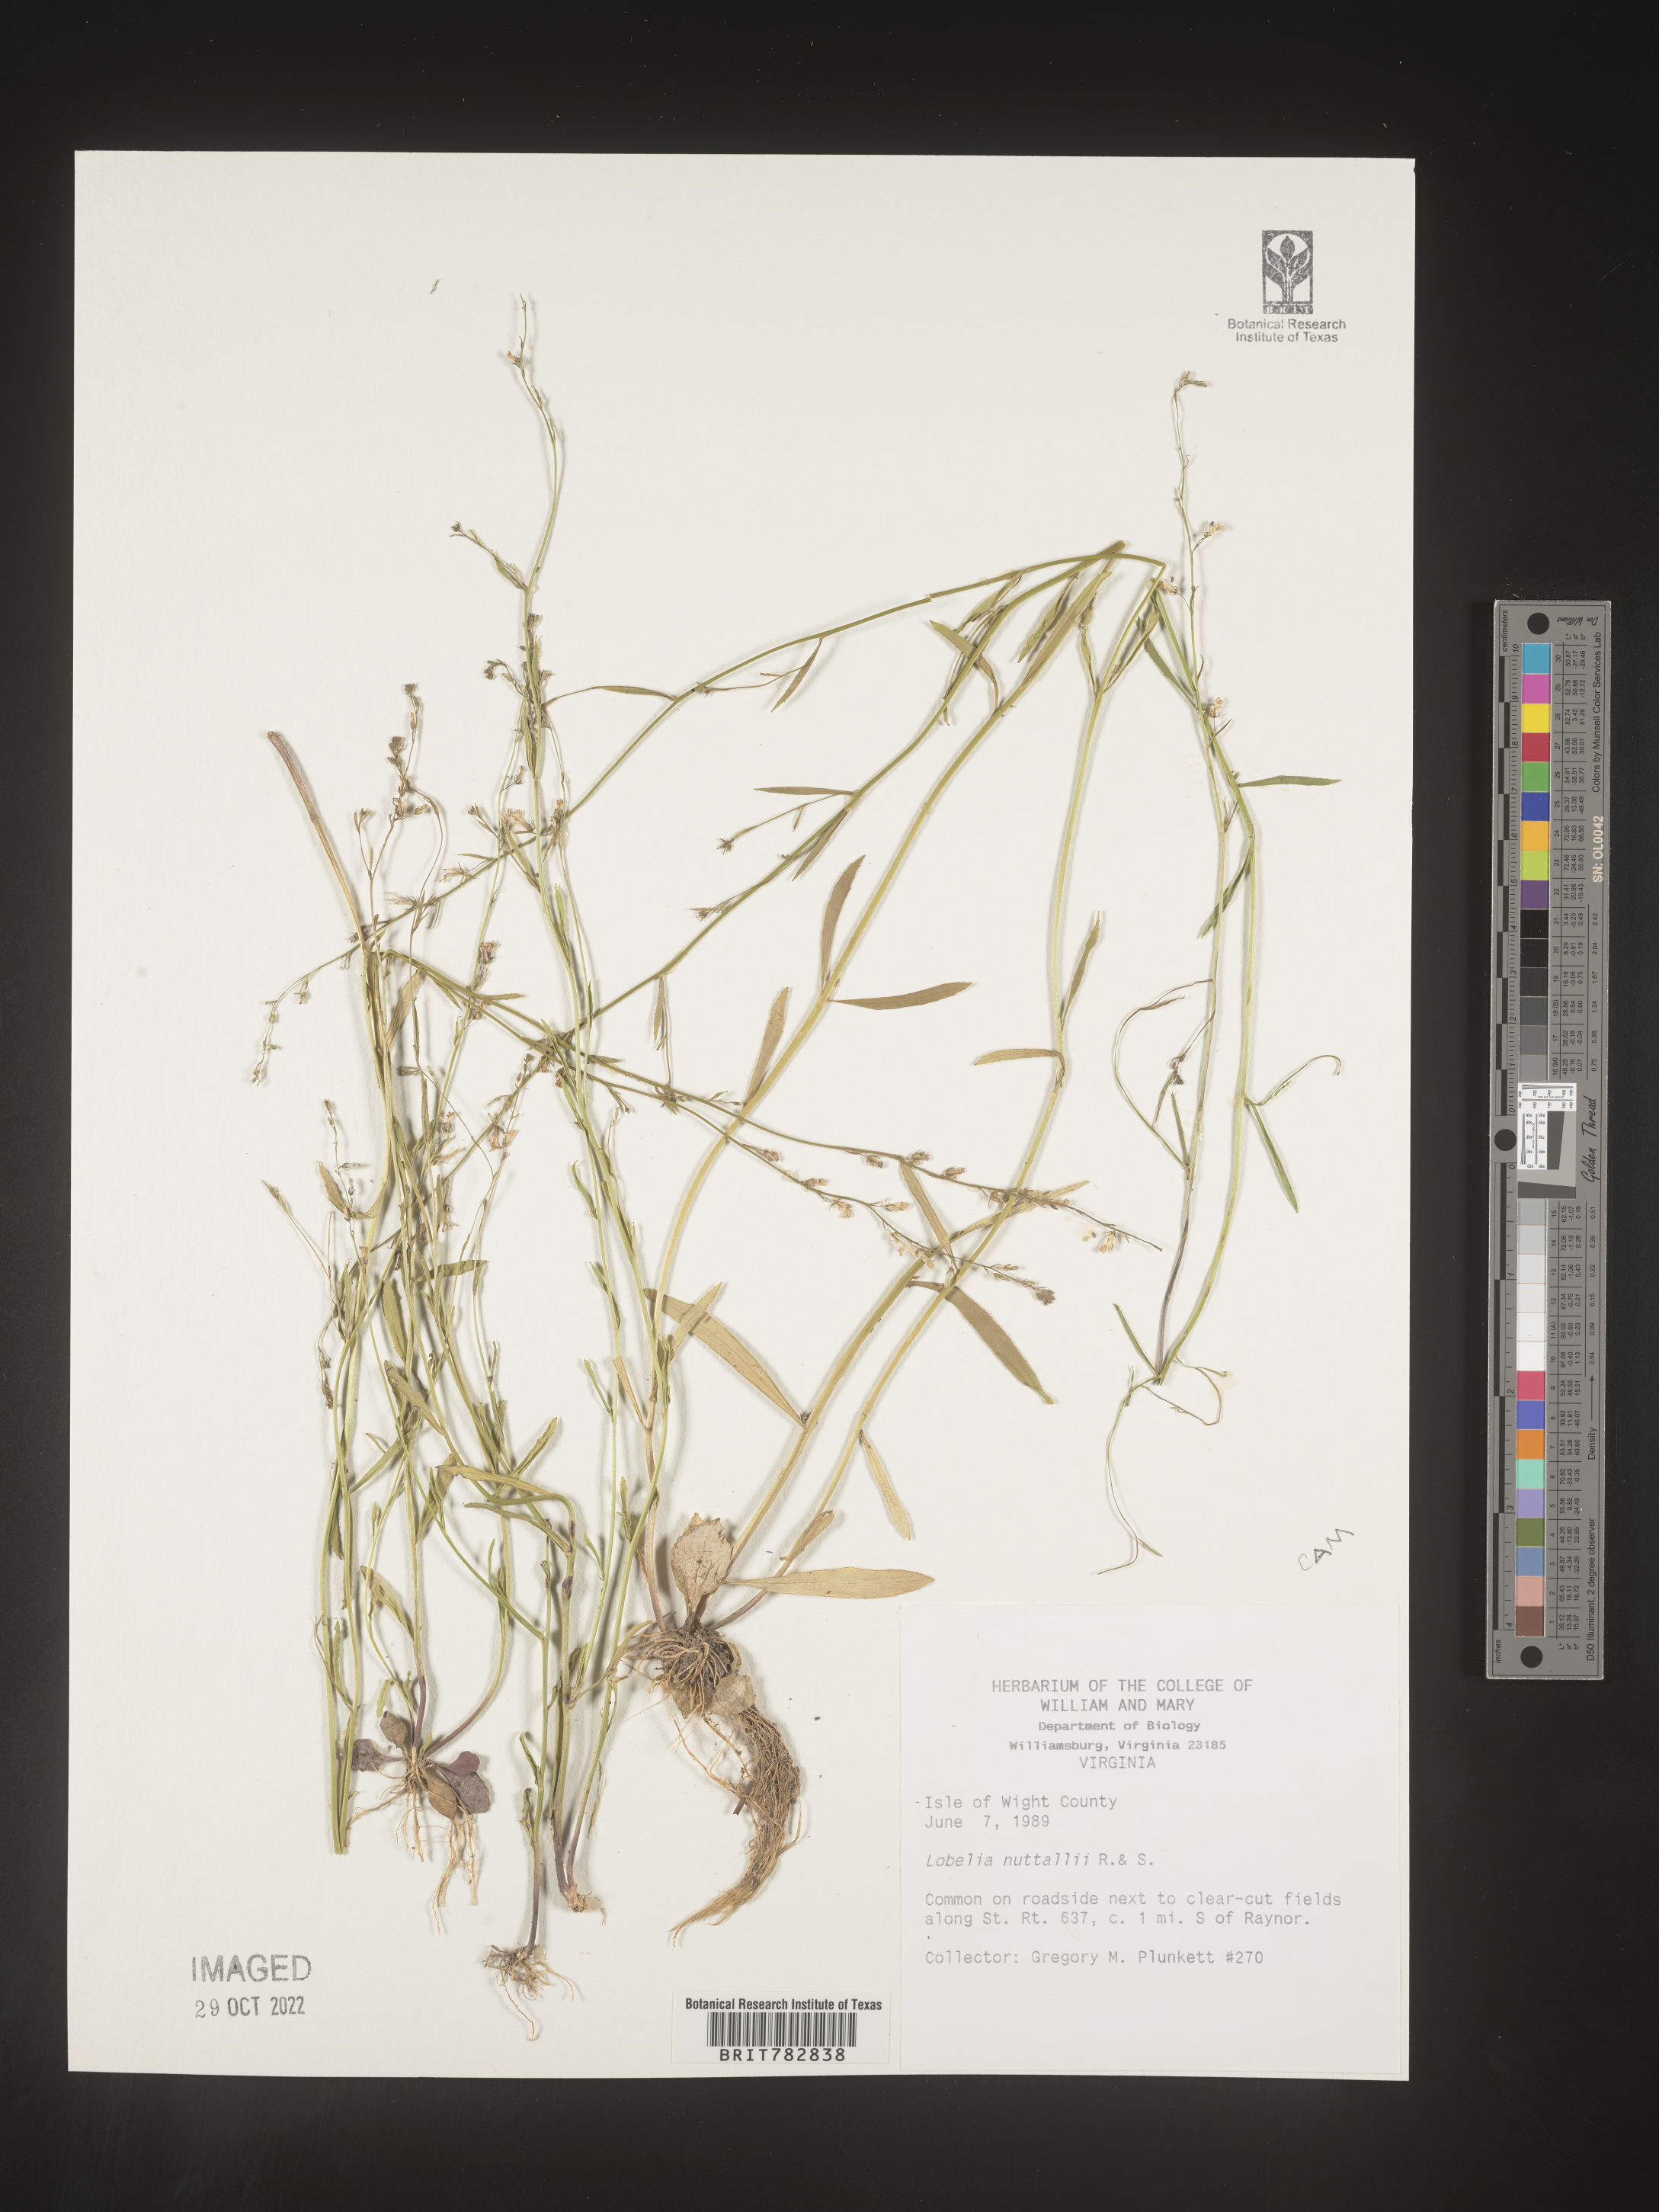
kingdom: Plantae
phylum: Tracheophyta
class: Magnoliopsida
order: Asterales
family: Campanulaceae
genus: Lobelia
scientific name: Lobelia nuttallii
